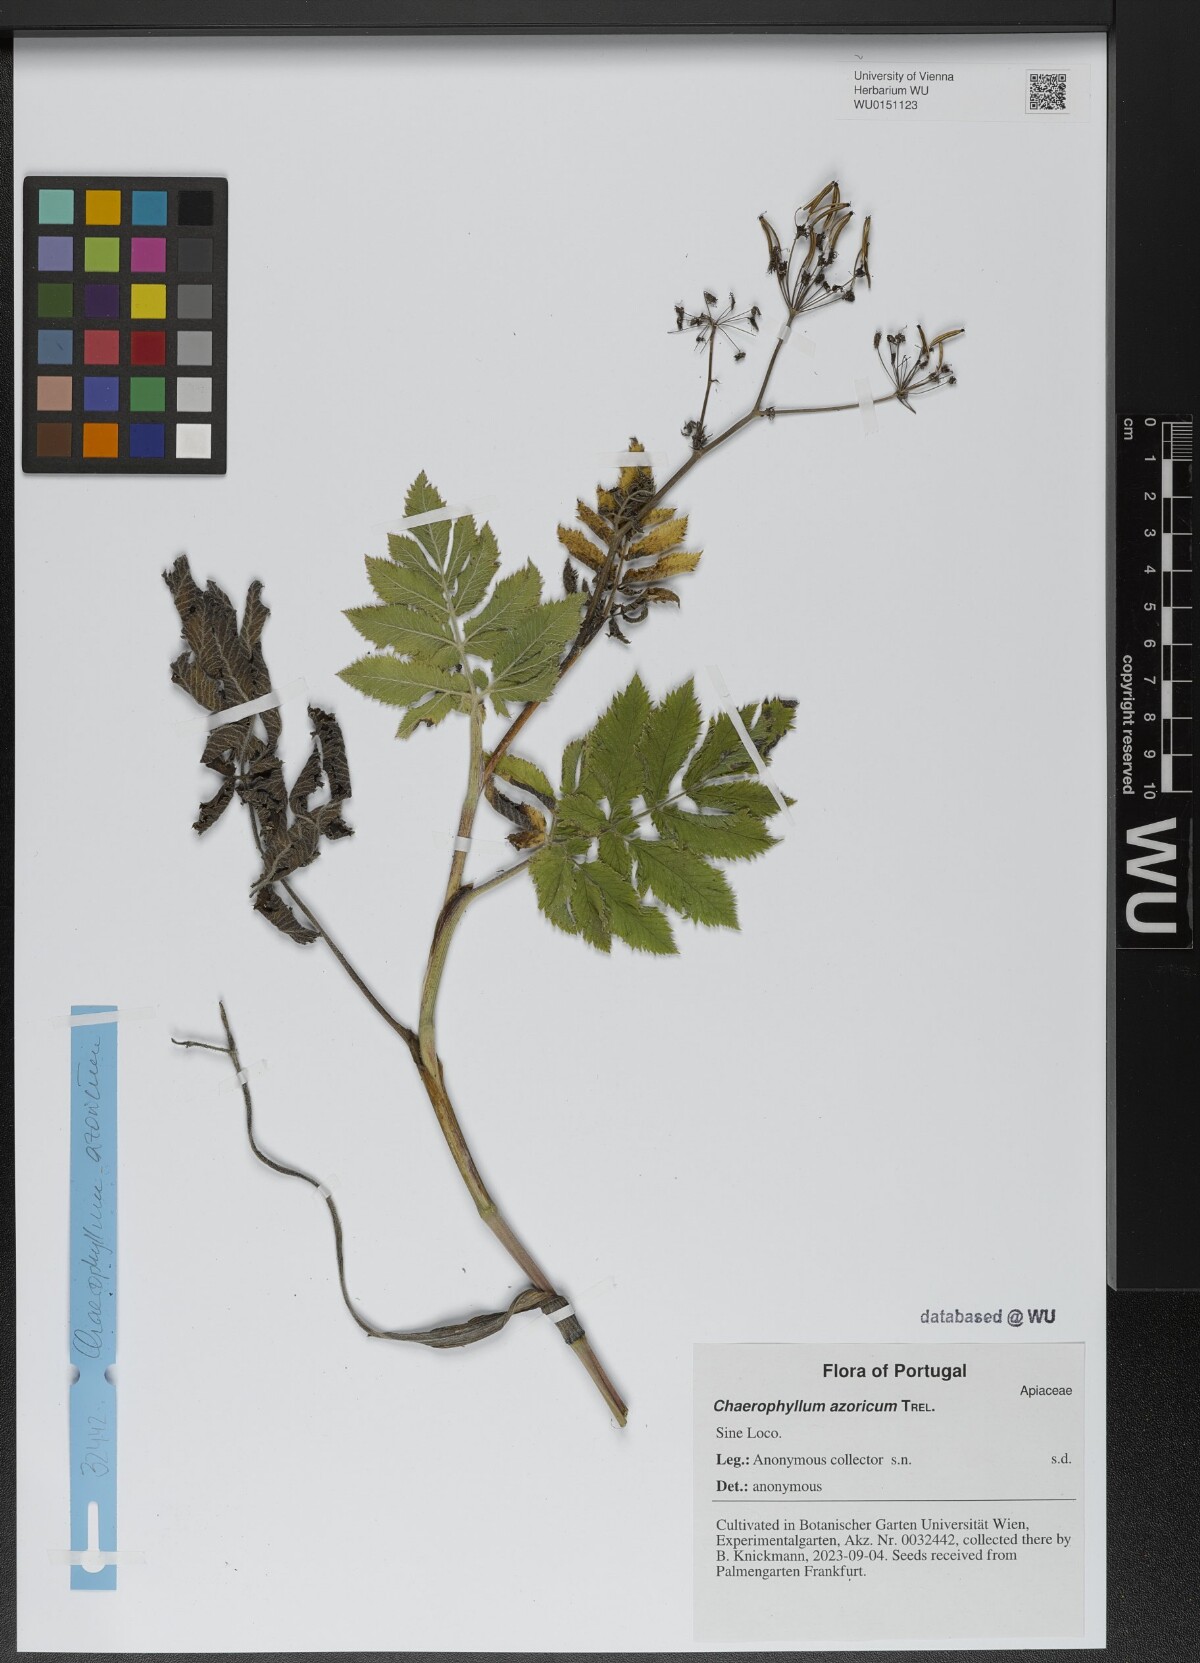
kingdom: Plantae
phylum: Tracheophyta
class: Magnoliopsida
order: Apiales
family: Apiaceae
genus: Chaerophyllum
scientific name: Chaerophyllum azoricum
